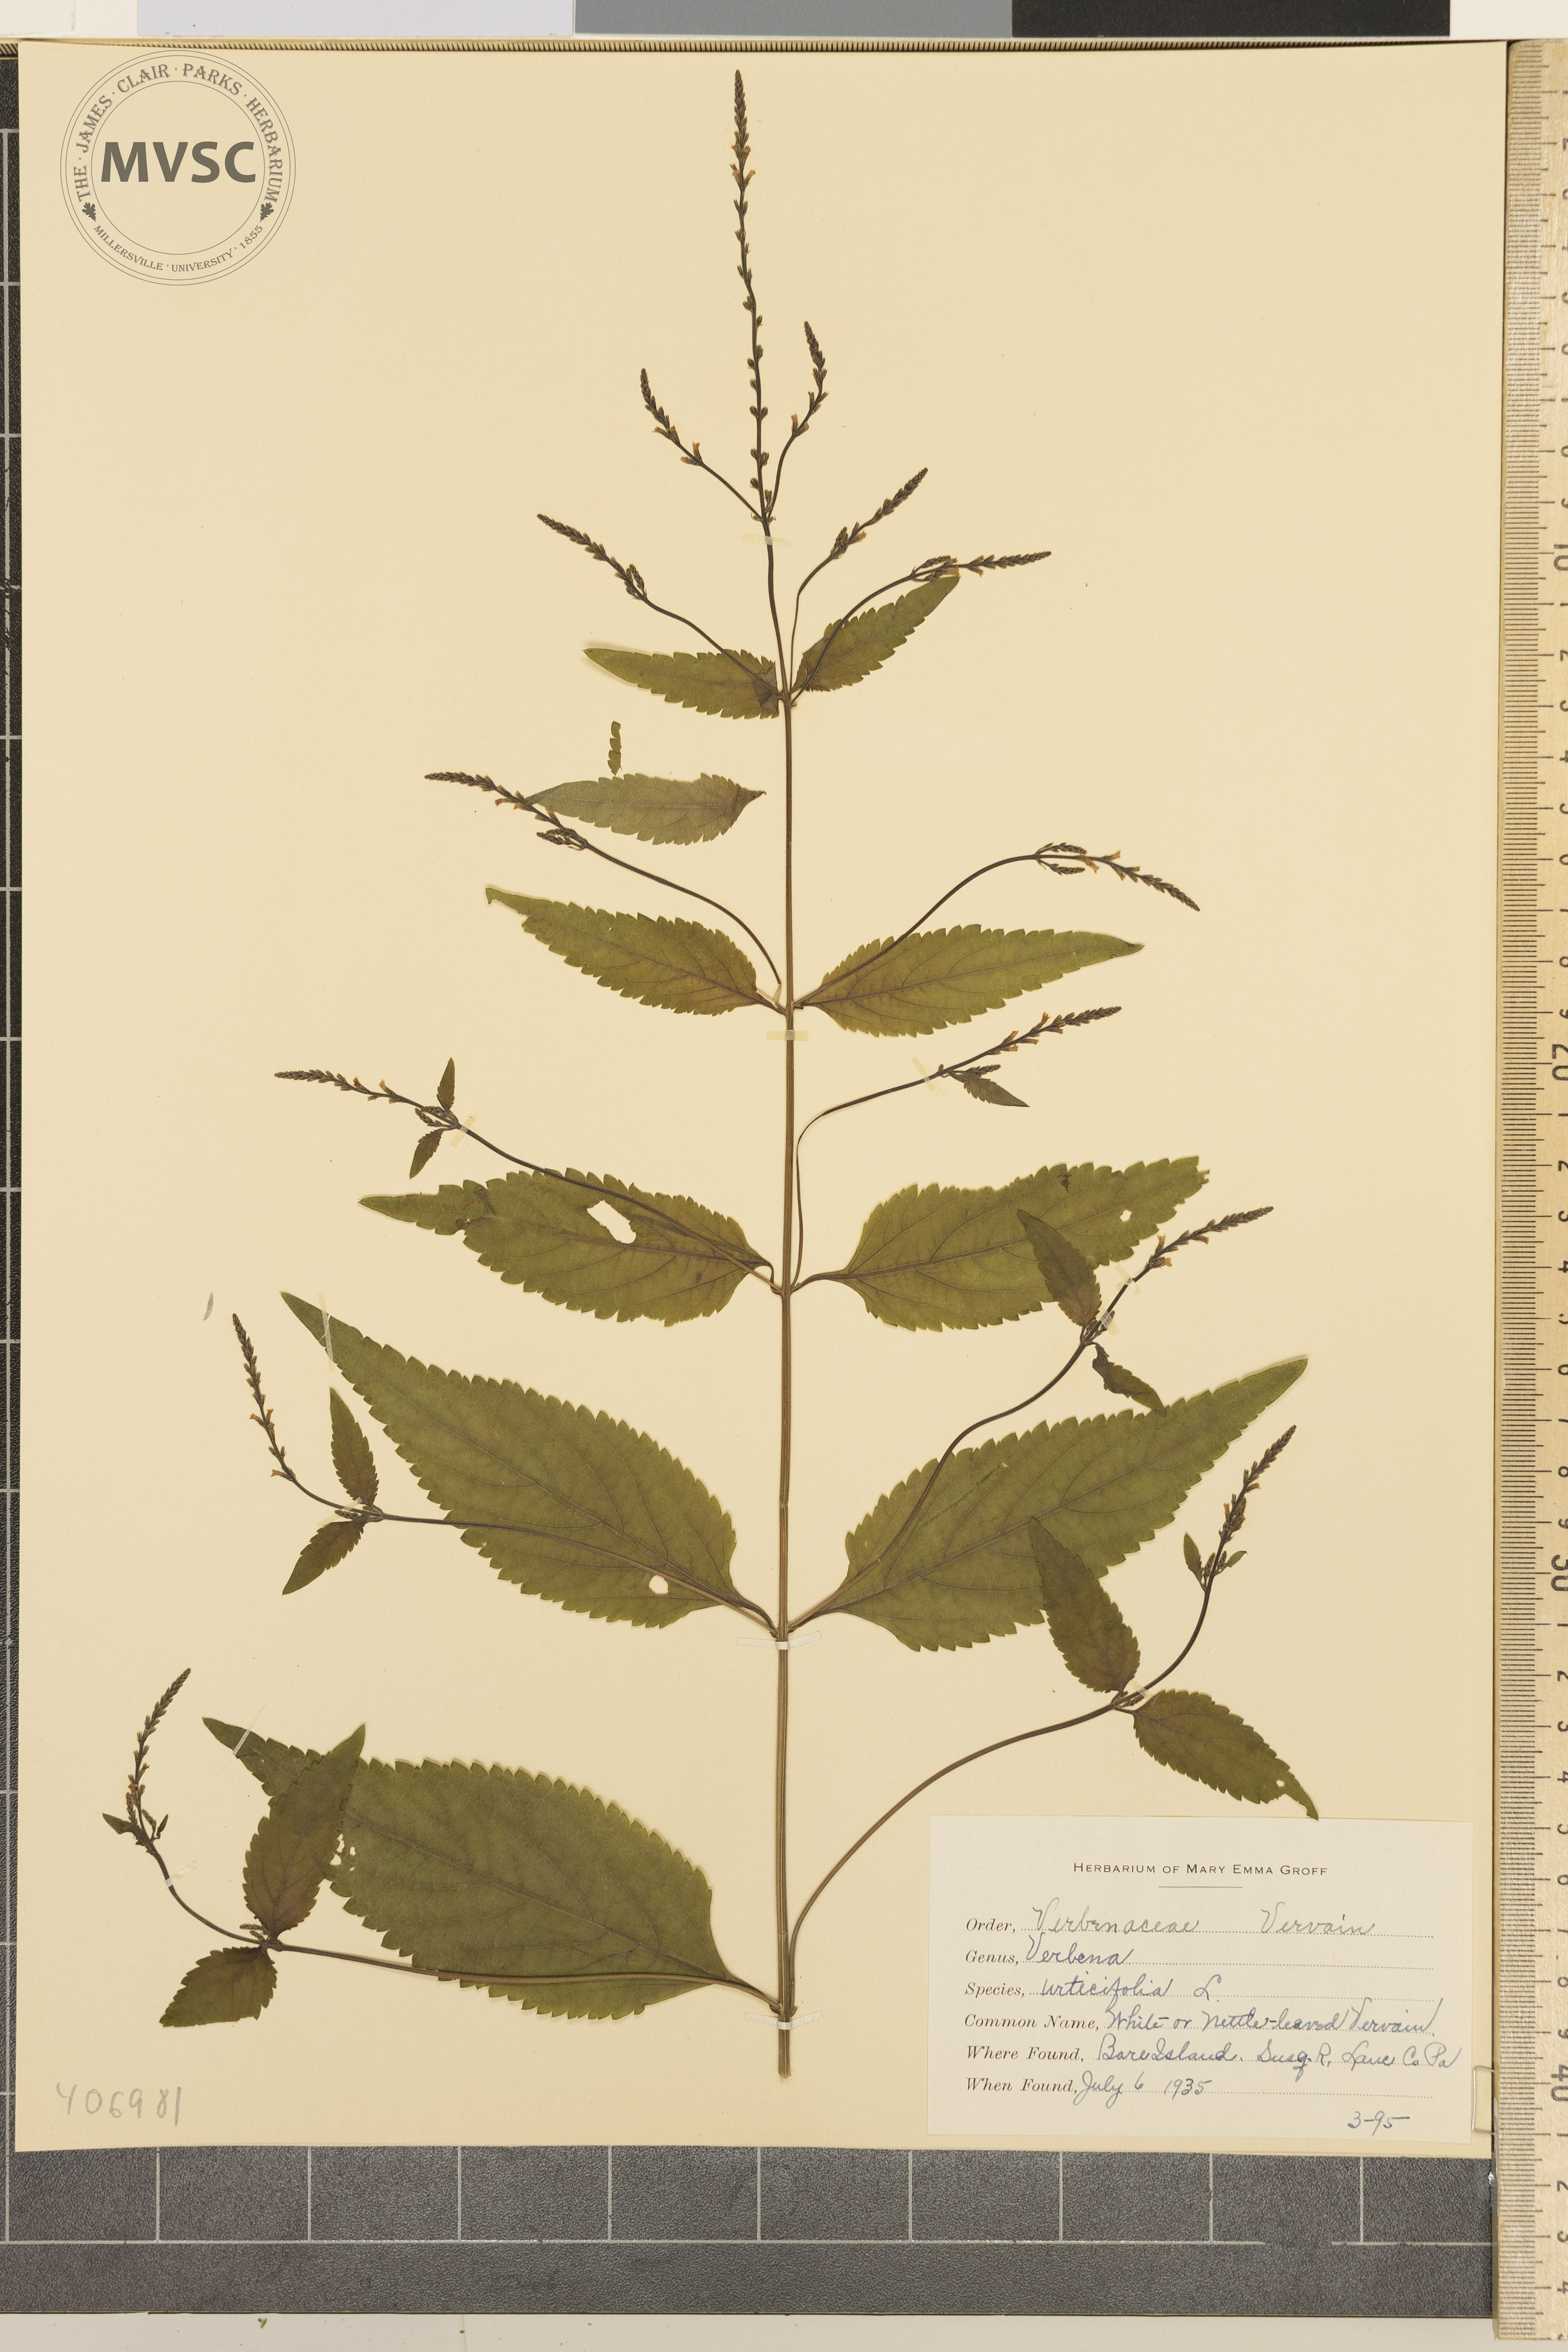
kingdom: Plantae
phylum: Tracheophyta
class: Magnoliopsida
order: Lamiales
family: Verbenaceae
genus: Verbena
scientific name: Verbena urticifolia
